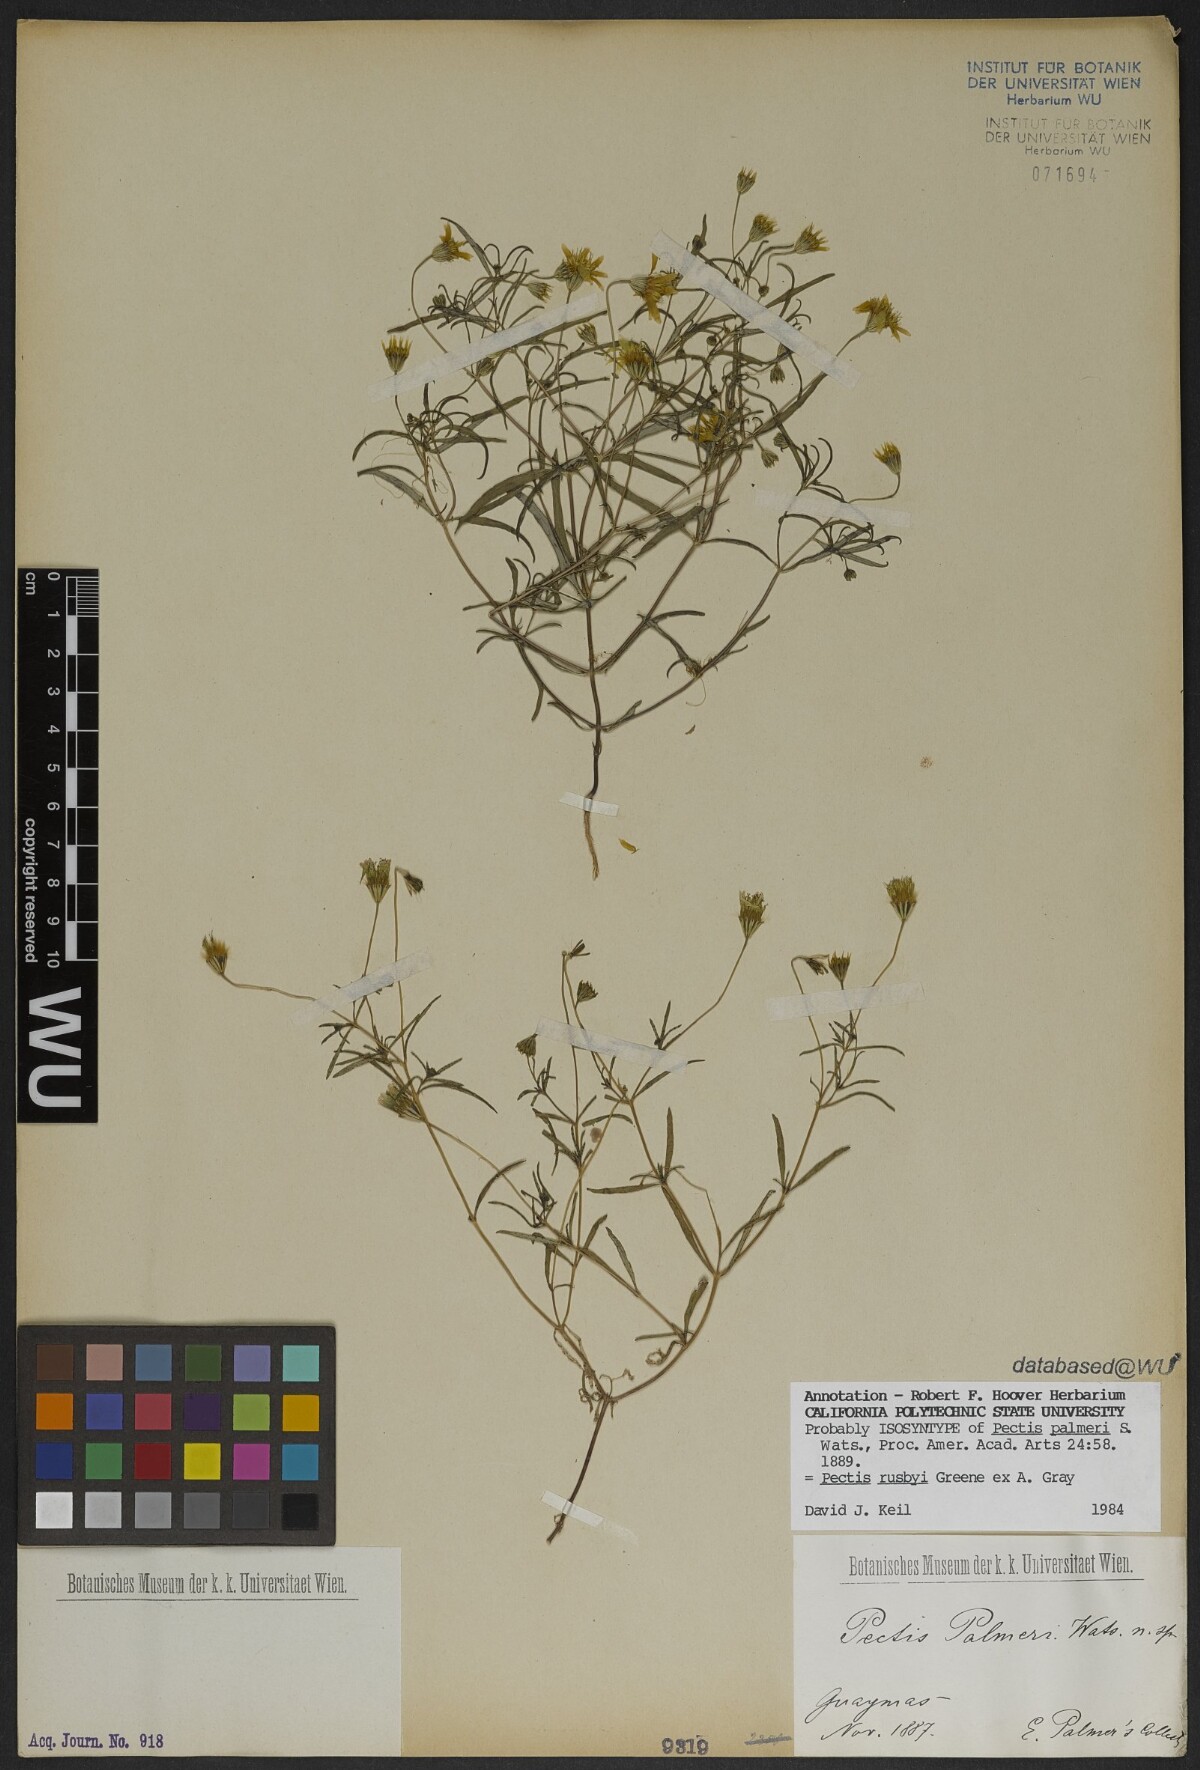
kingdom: Plantae
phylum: Tracheophyta
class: Magnoliopsida
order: Asterales
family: Asteraceae
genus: Pectis
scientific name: Pectis rusbyi
